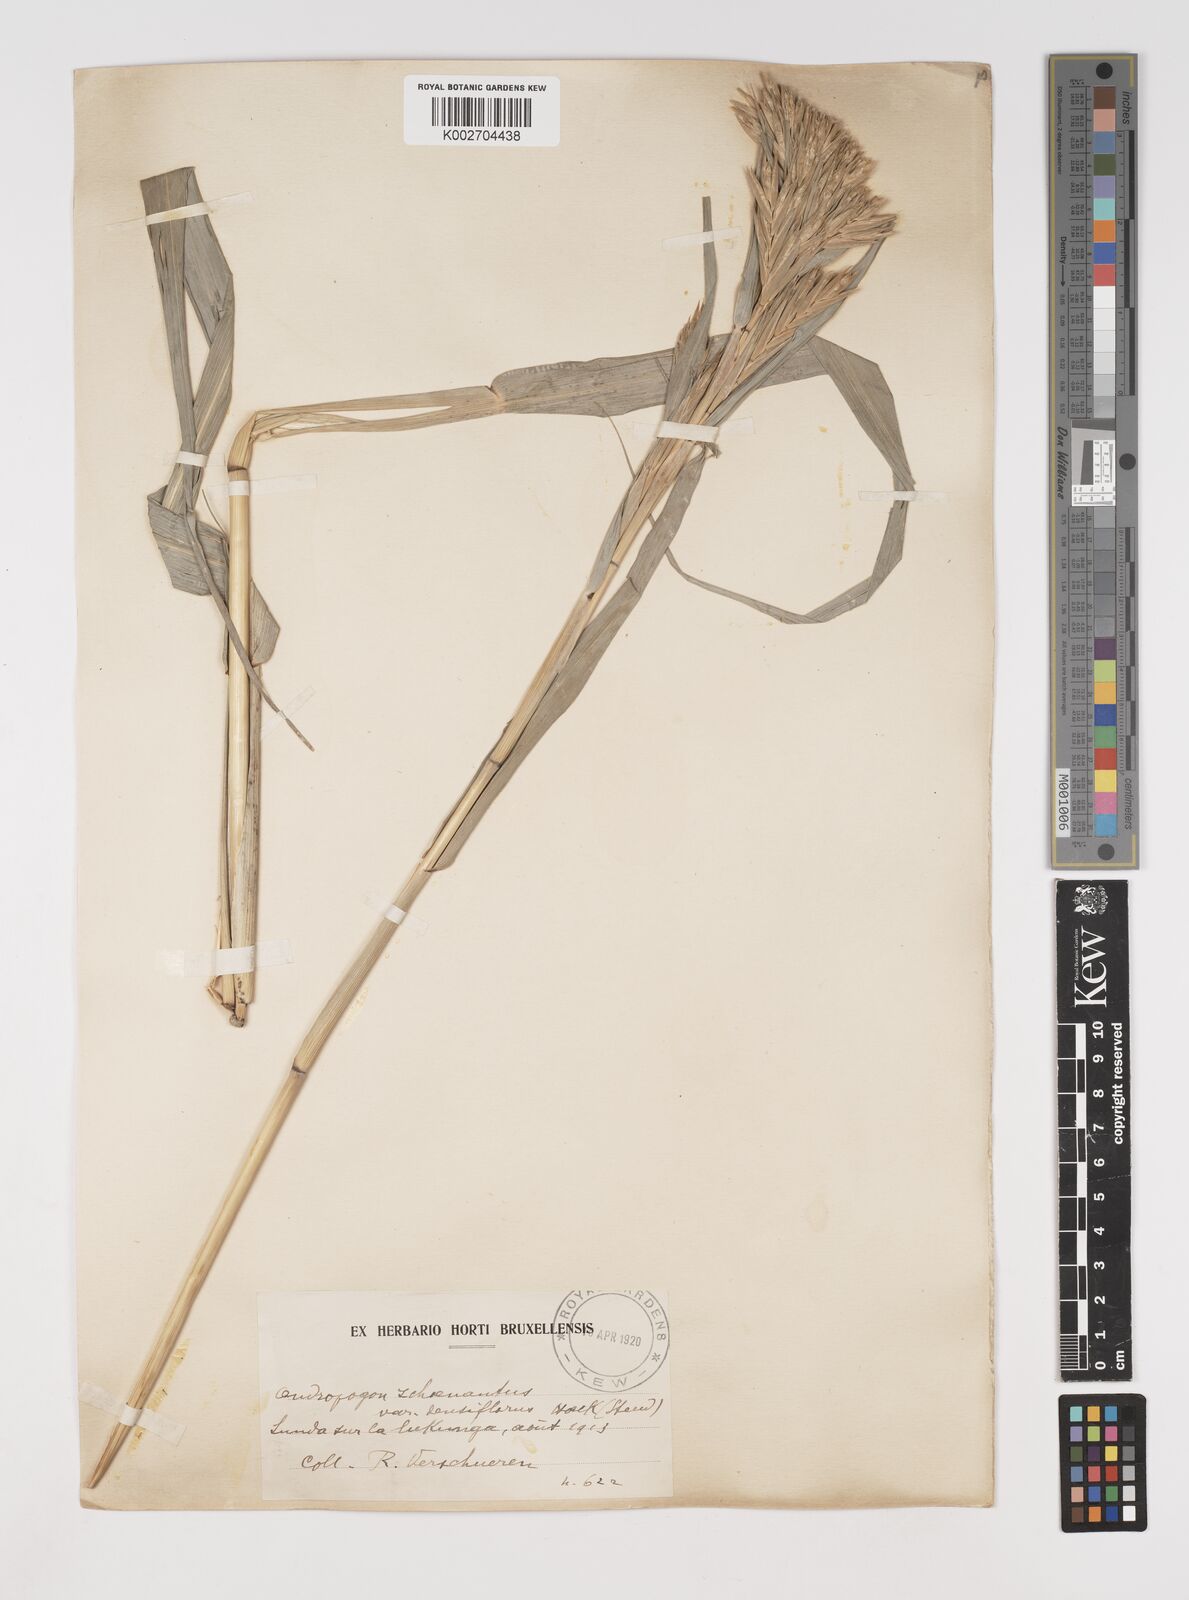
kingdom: Plantae
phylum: Tracheophyta
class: Liliopsida
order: Poales
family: Poaceae
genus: Cymbopogon
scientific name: Cymbopogon densiflorus
